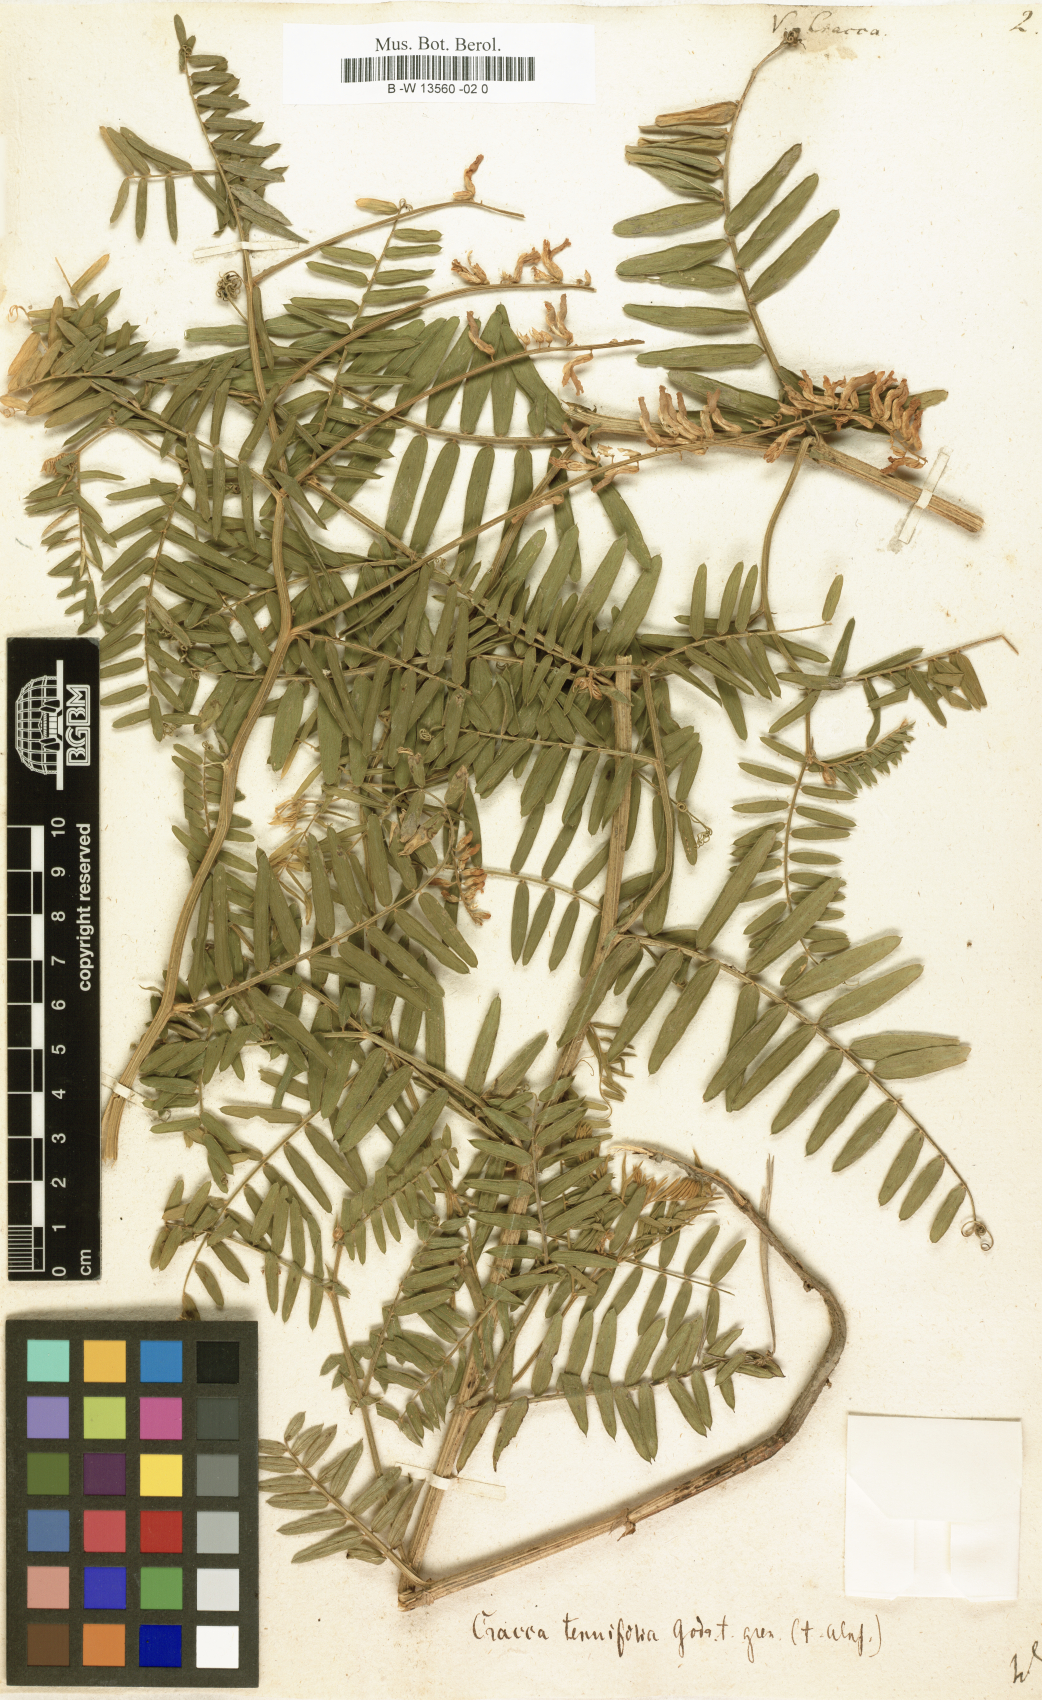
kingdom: Plantae
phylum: Tracheophyta
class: Magnoliopsida
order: Fabales
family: Fabaceae
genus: Vicia
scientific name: Vicia cracca
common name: Bird vetch
